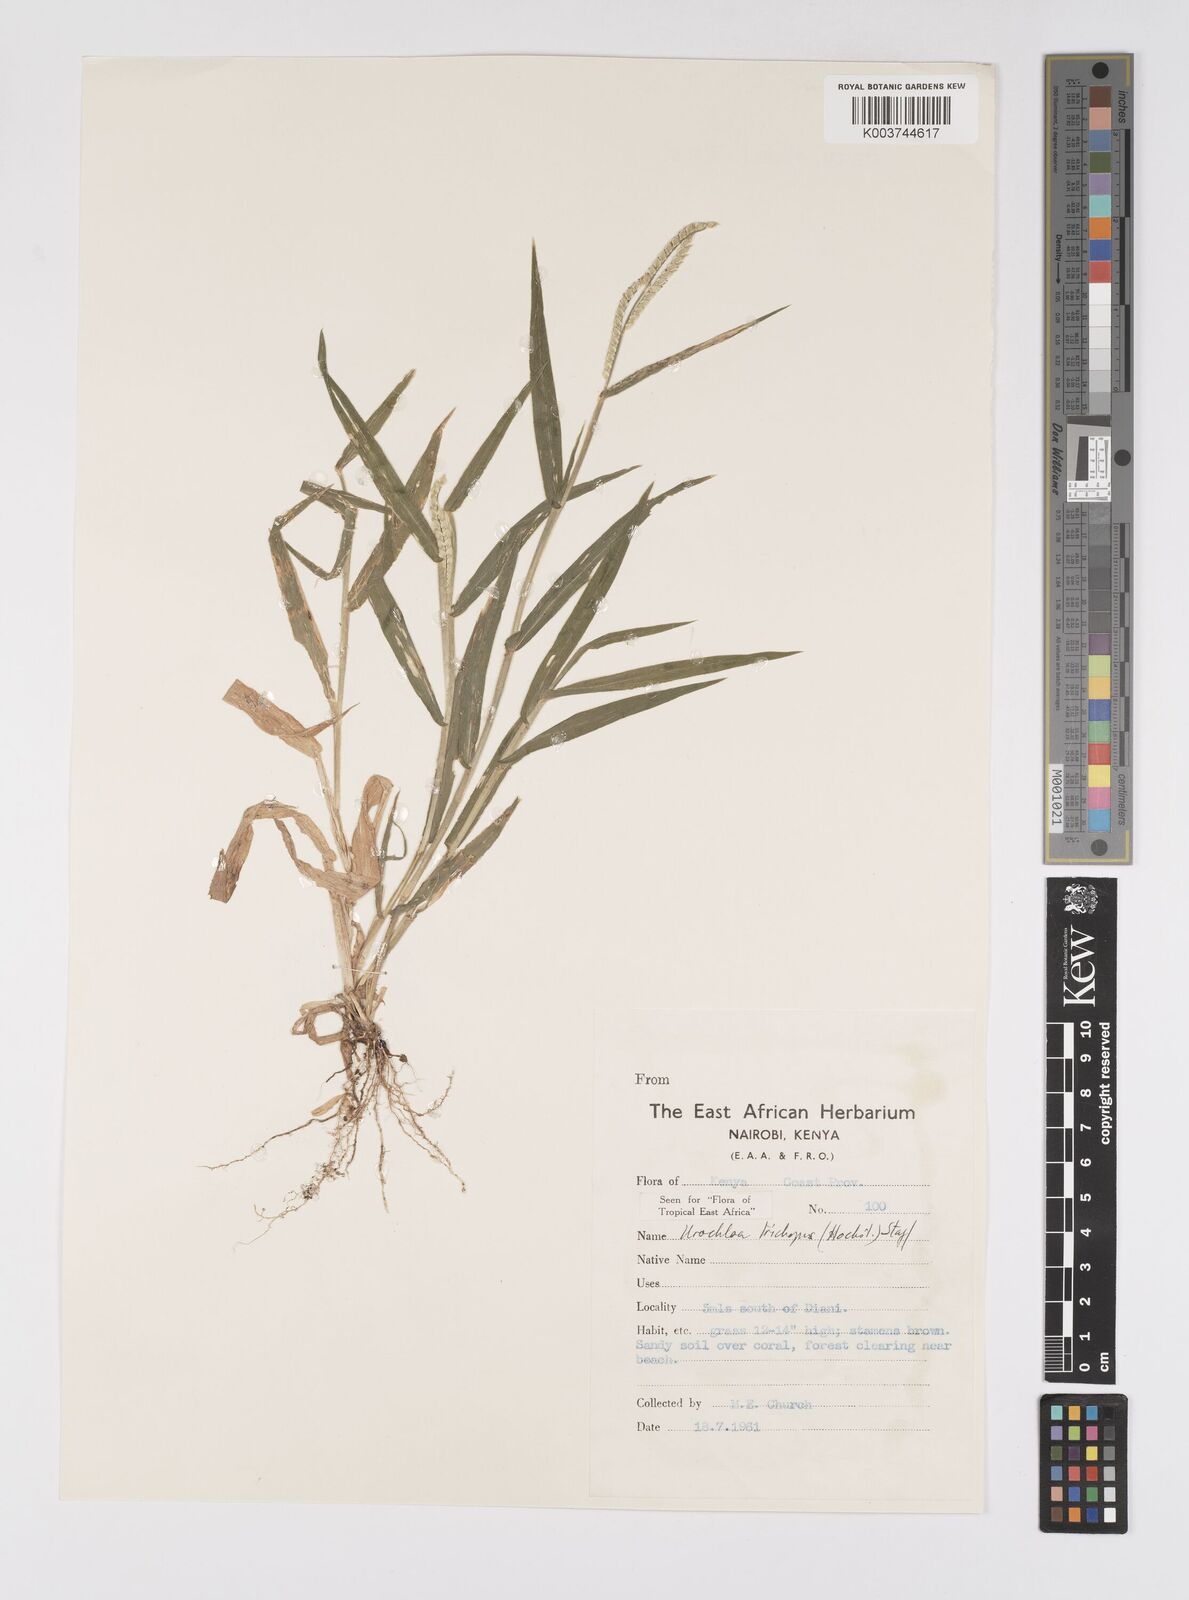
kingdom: Plantae
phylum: Tracheophyta
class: Liliopsida
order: Poales
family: Poaceae
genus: Urochloa
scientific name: Urochloa trichopus
